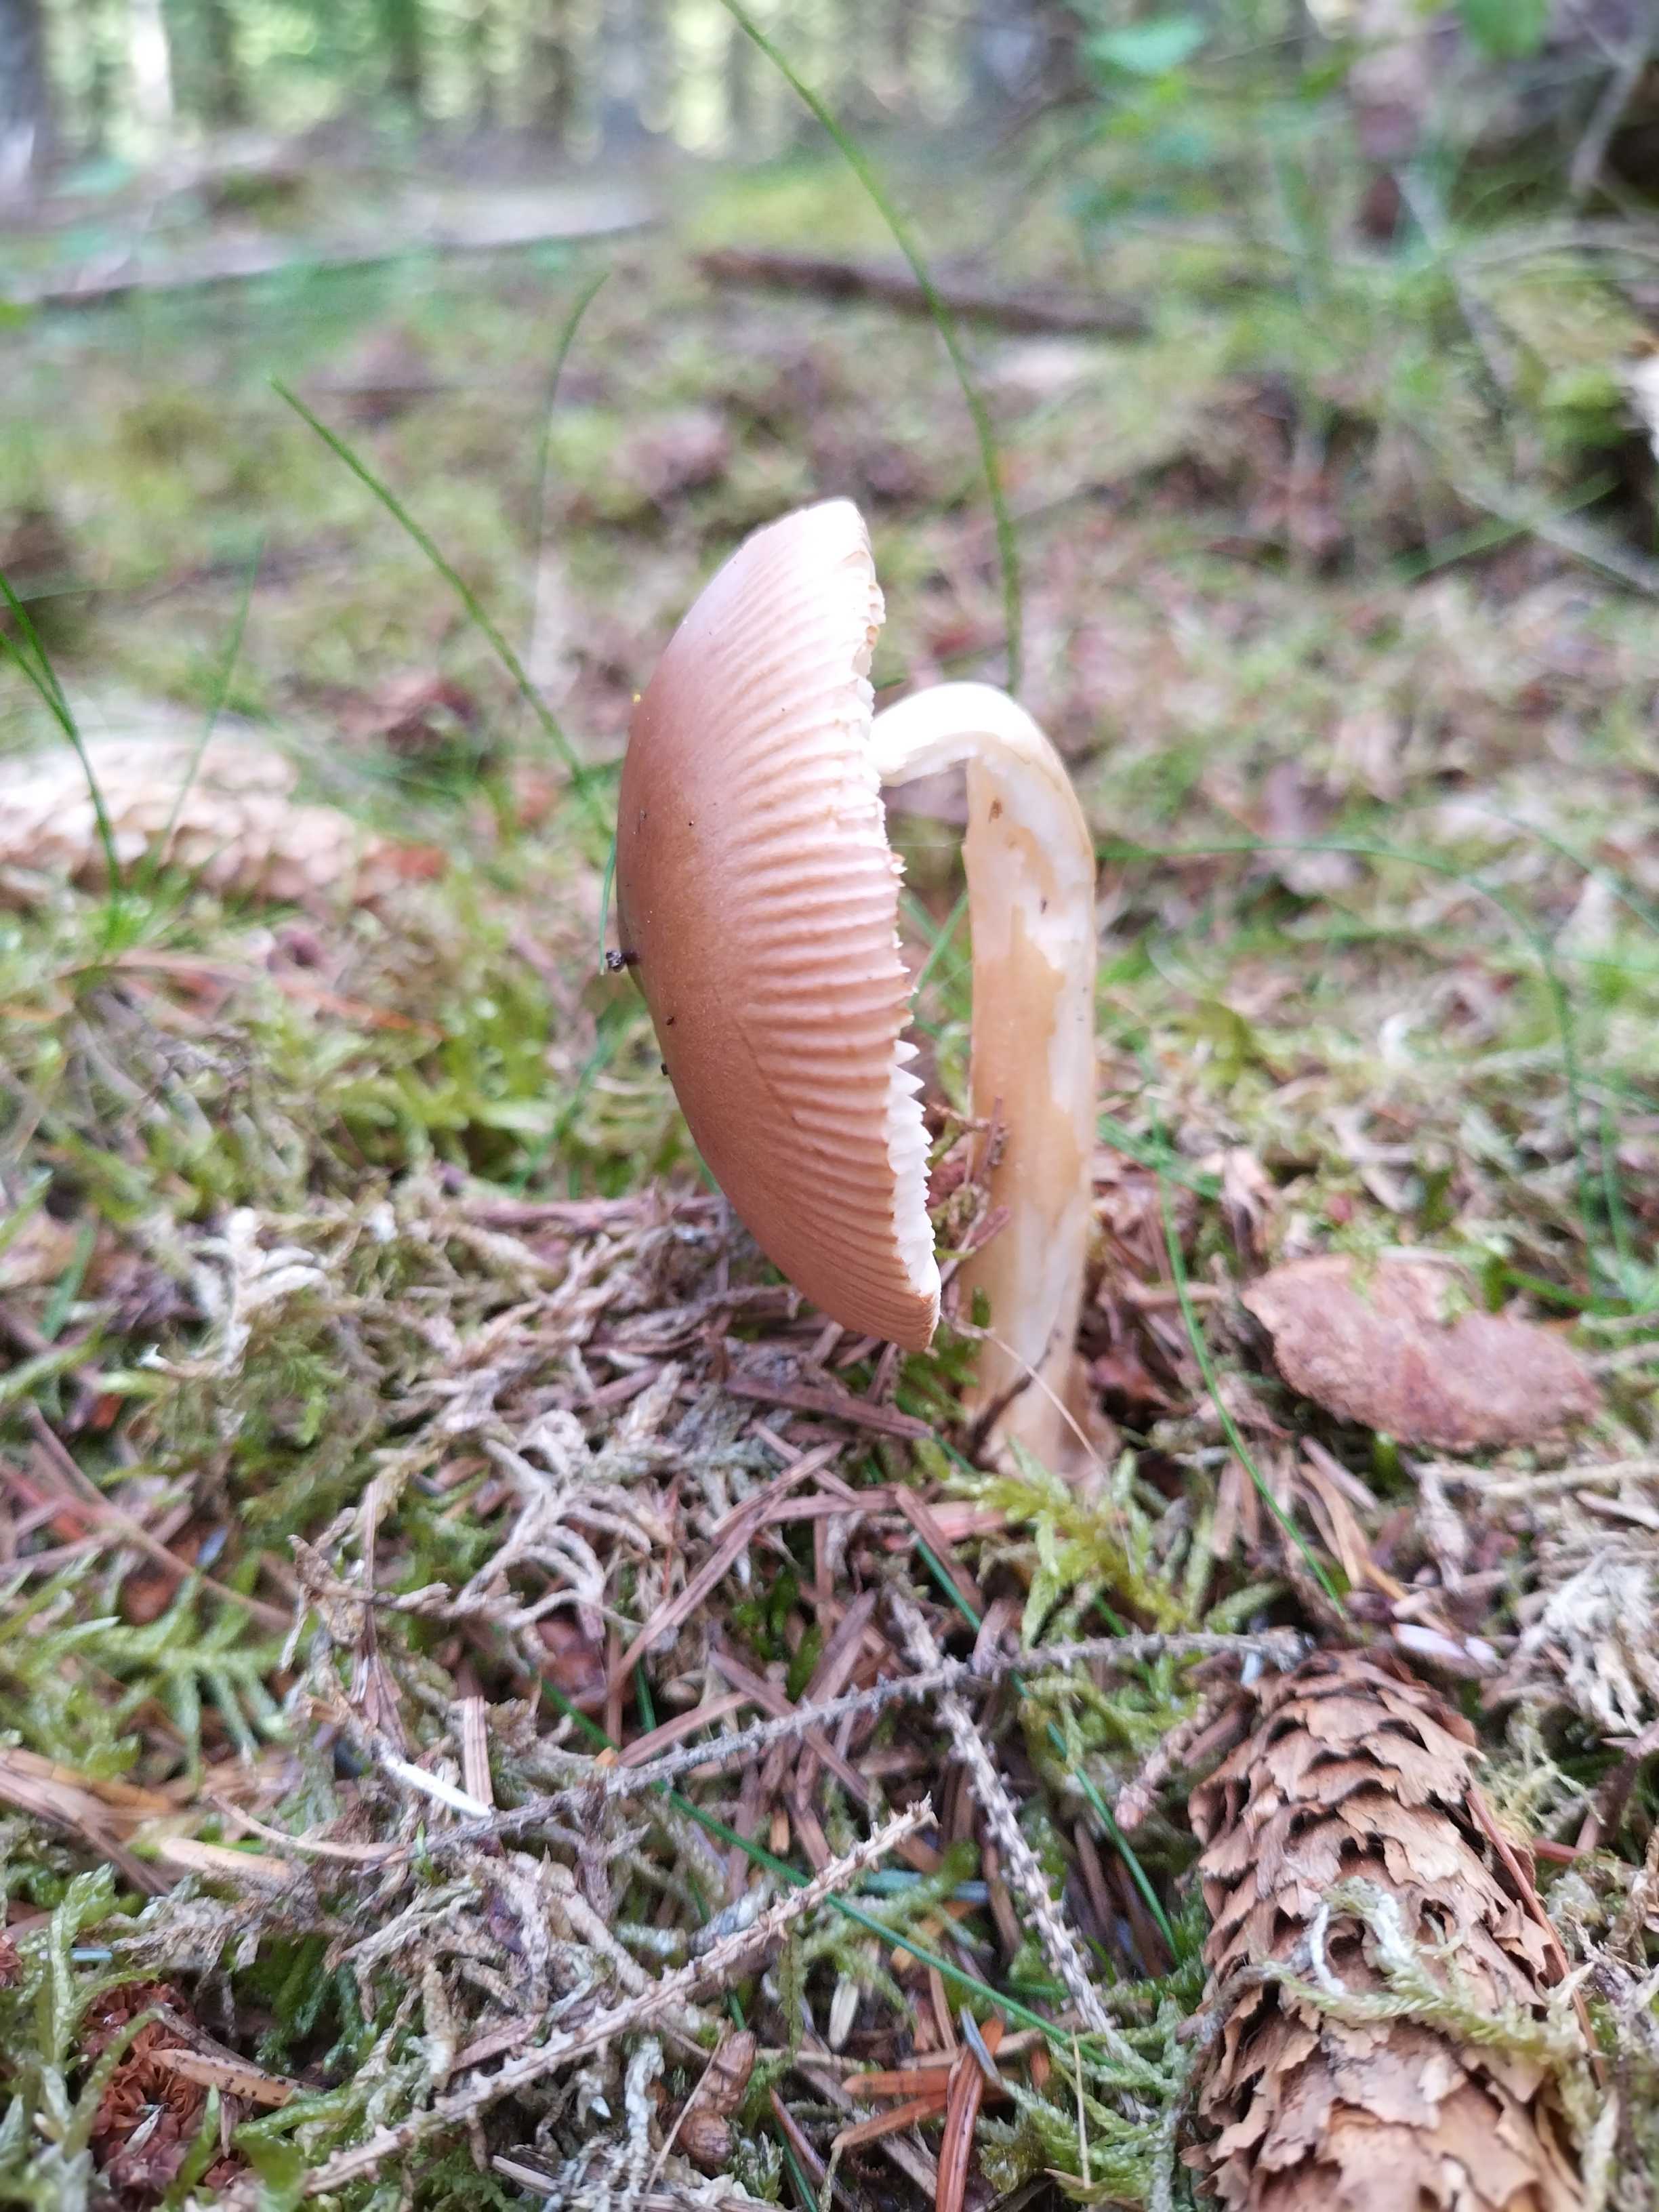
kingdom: Fungi
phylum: Basidiomycota
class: Agaricomycetes
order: Agaricales
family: Amanitaceae
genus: Amanita
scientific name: Amanita fulva
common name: brun kam-fluesvamp
